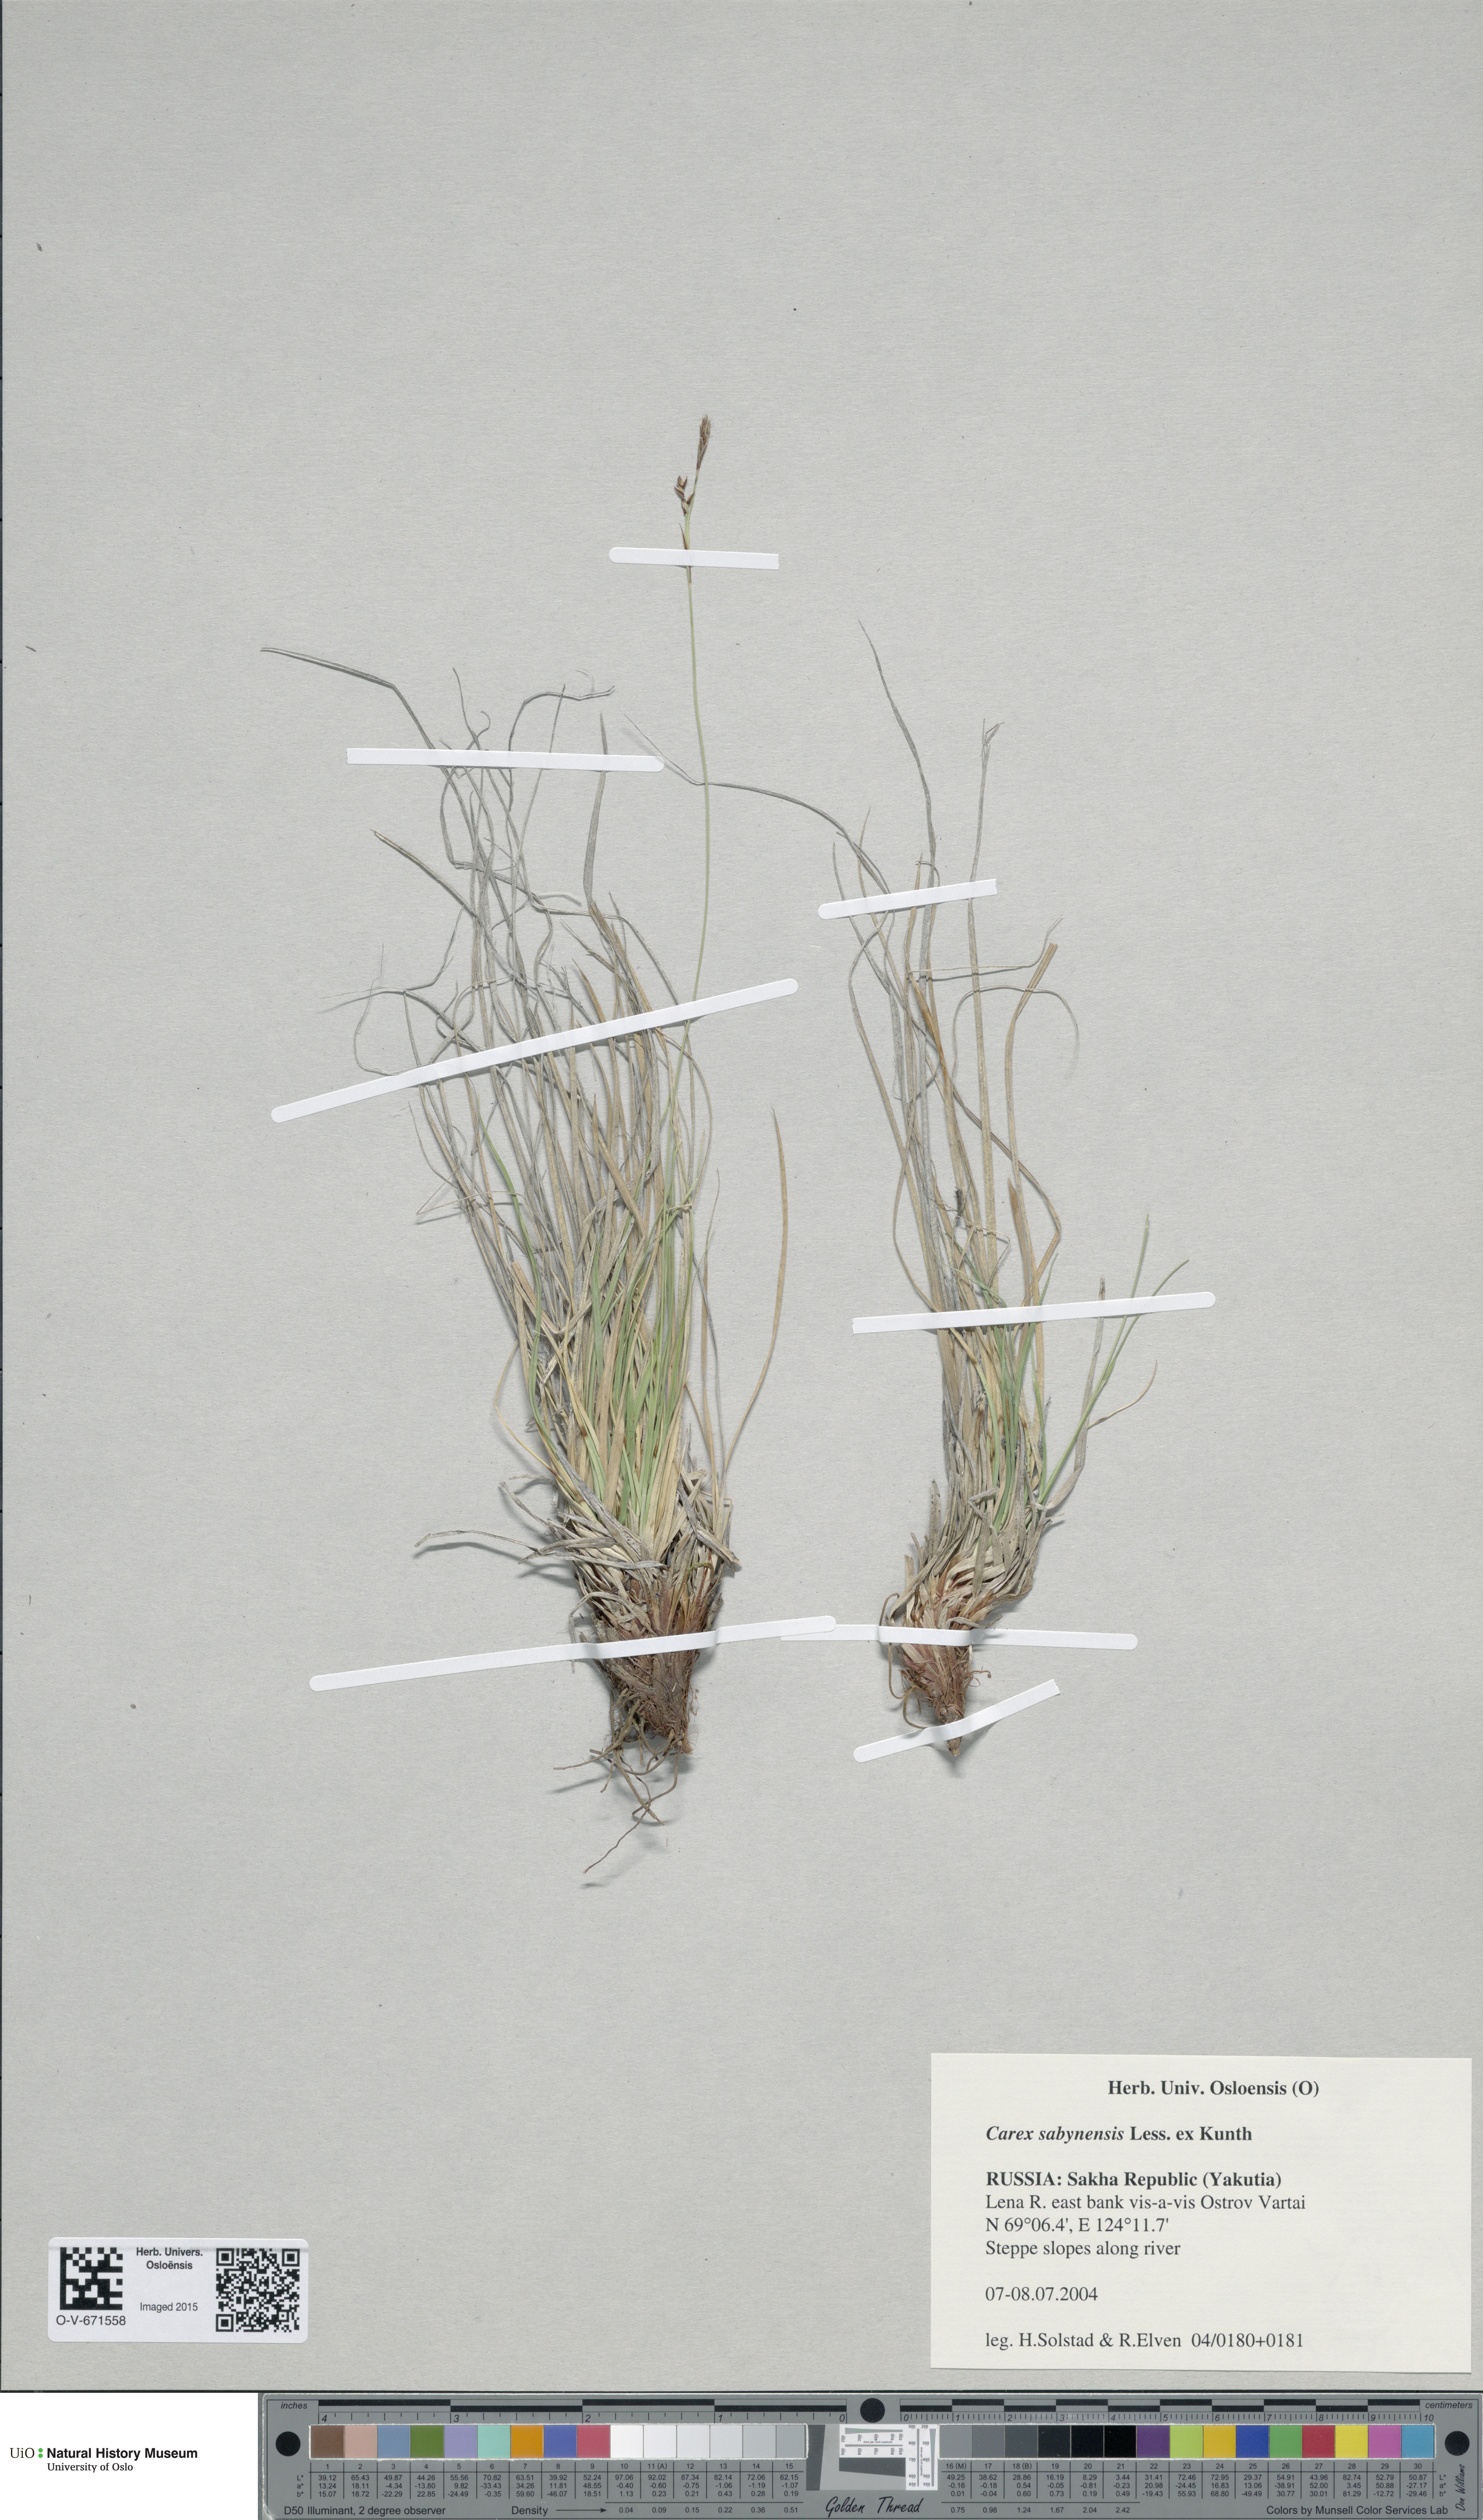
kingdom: Plantae
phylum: Tracheophyta
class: Liliopsida
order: Poales
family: Cyperaceae
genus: Carex
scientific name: Carex umbrosa
